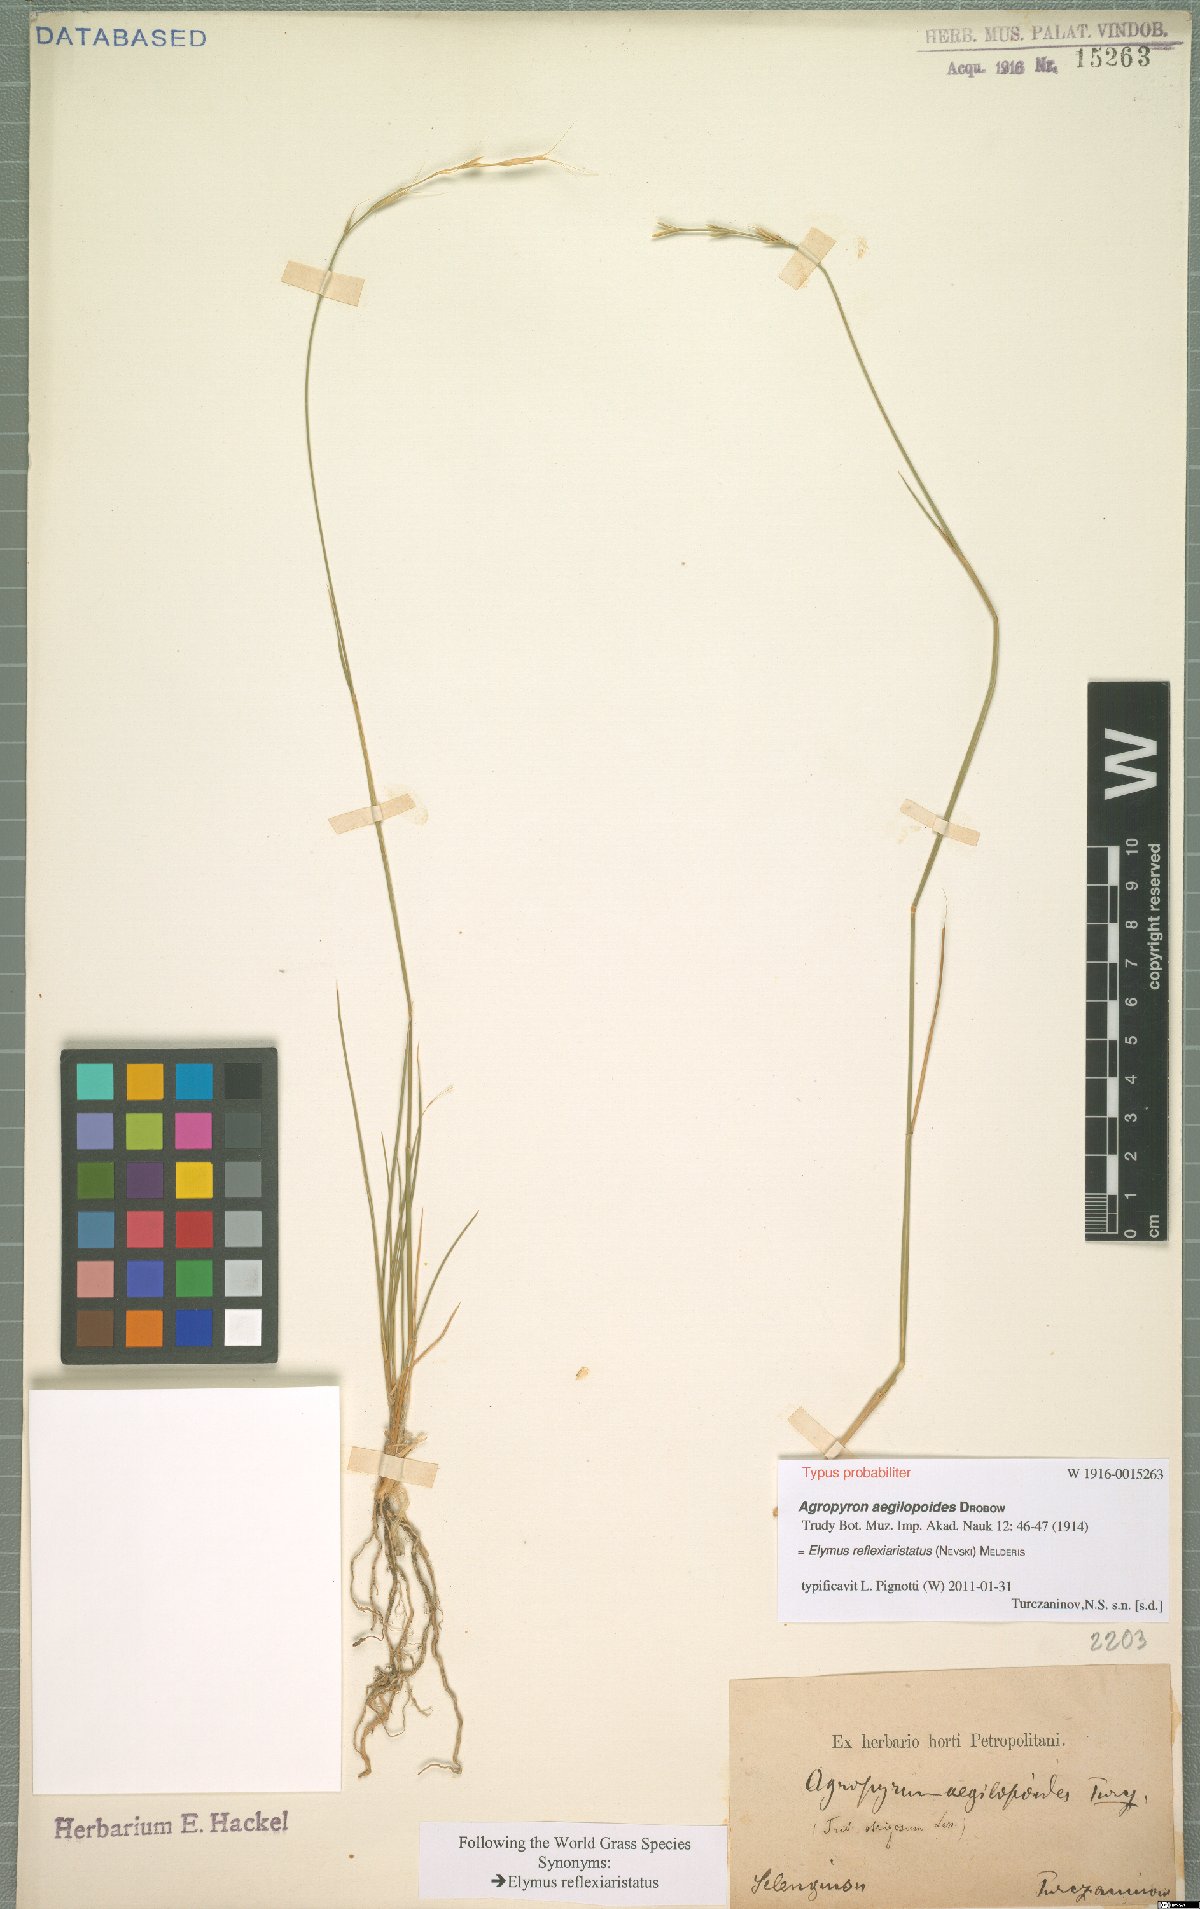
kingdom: Plantae
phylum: Tracheophyta
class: Liliopsida
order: Poales
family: Poaceae
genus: Pseudoroegneria
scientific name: Pseudoroegneria reflexiaristata
